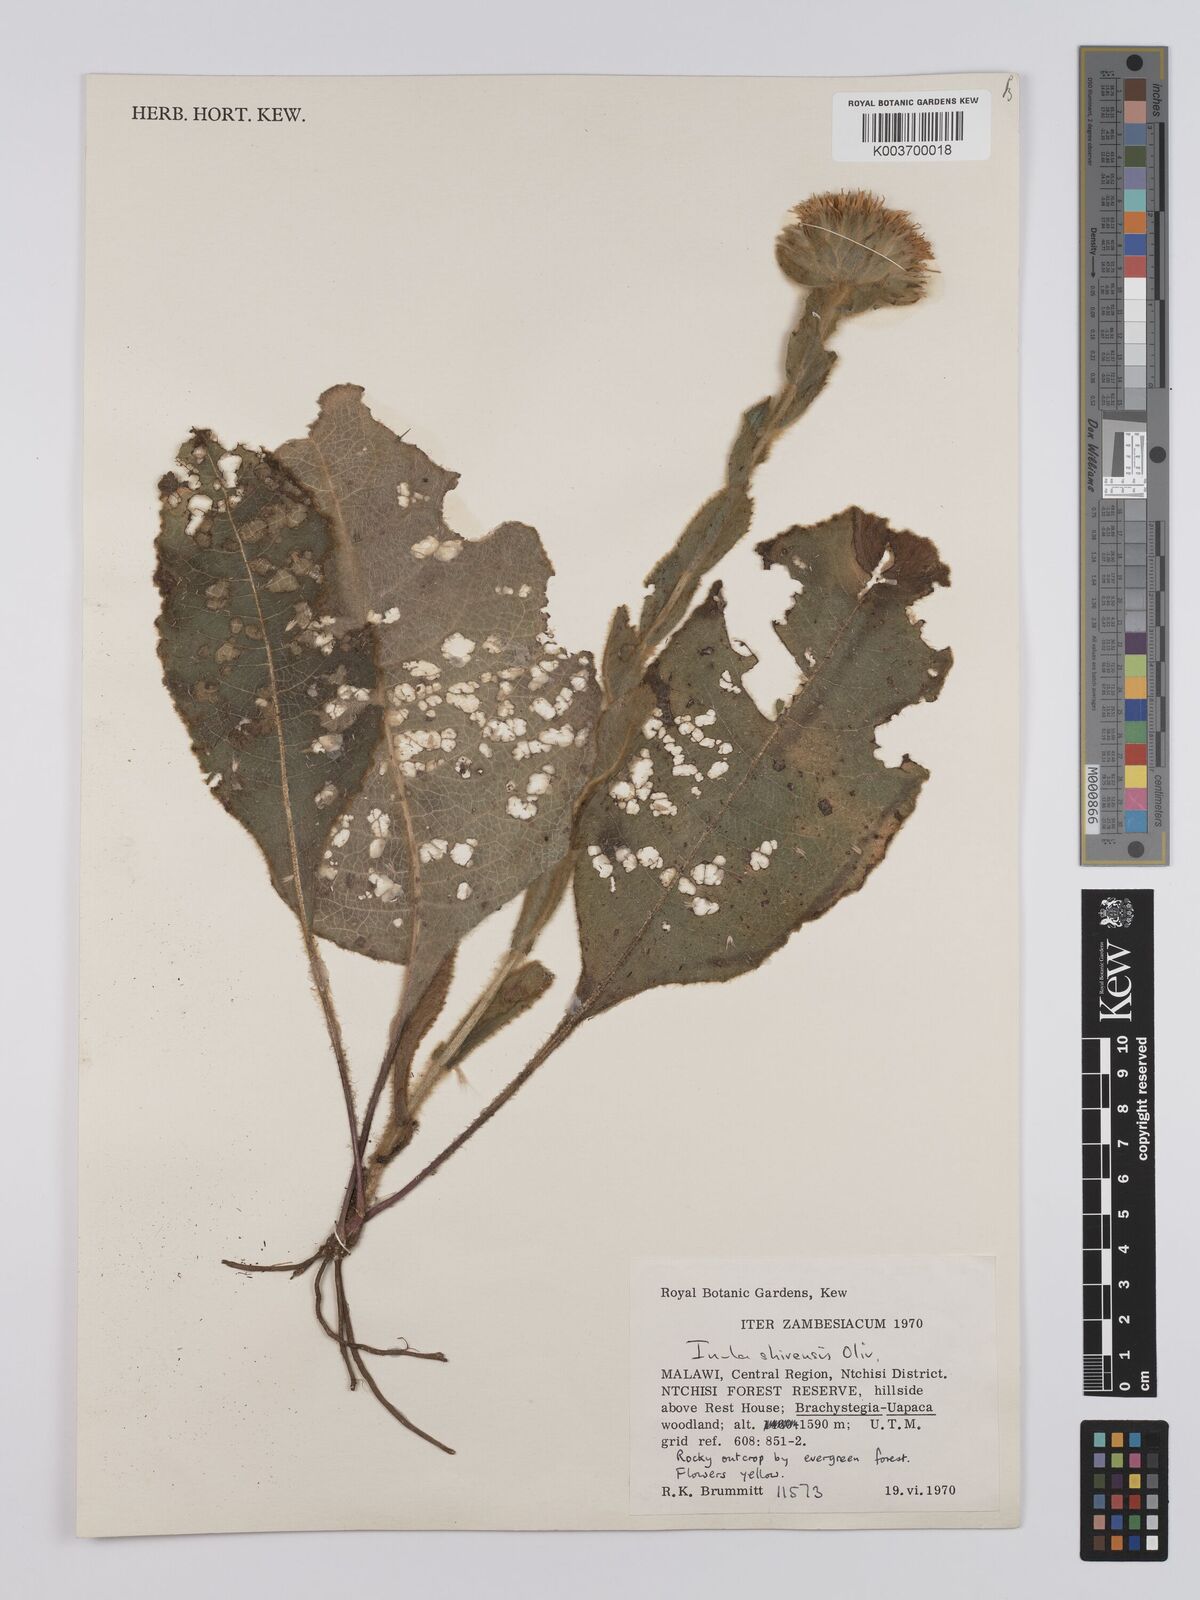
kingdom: Plantae
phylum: Tracheophyta
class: Magnoliopsida
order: Asterales
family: Asteraceae
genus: Monactinocephalus
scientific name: Monactinocephalus shirensis
